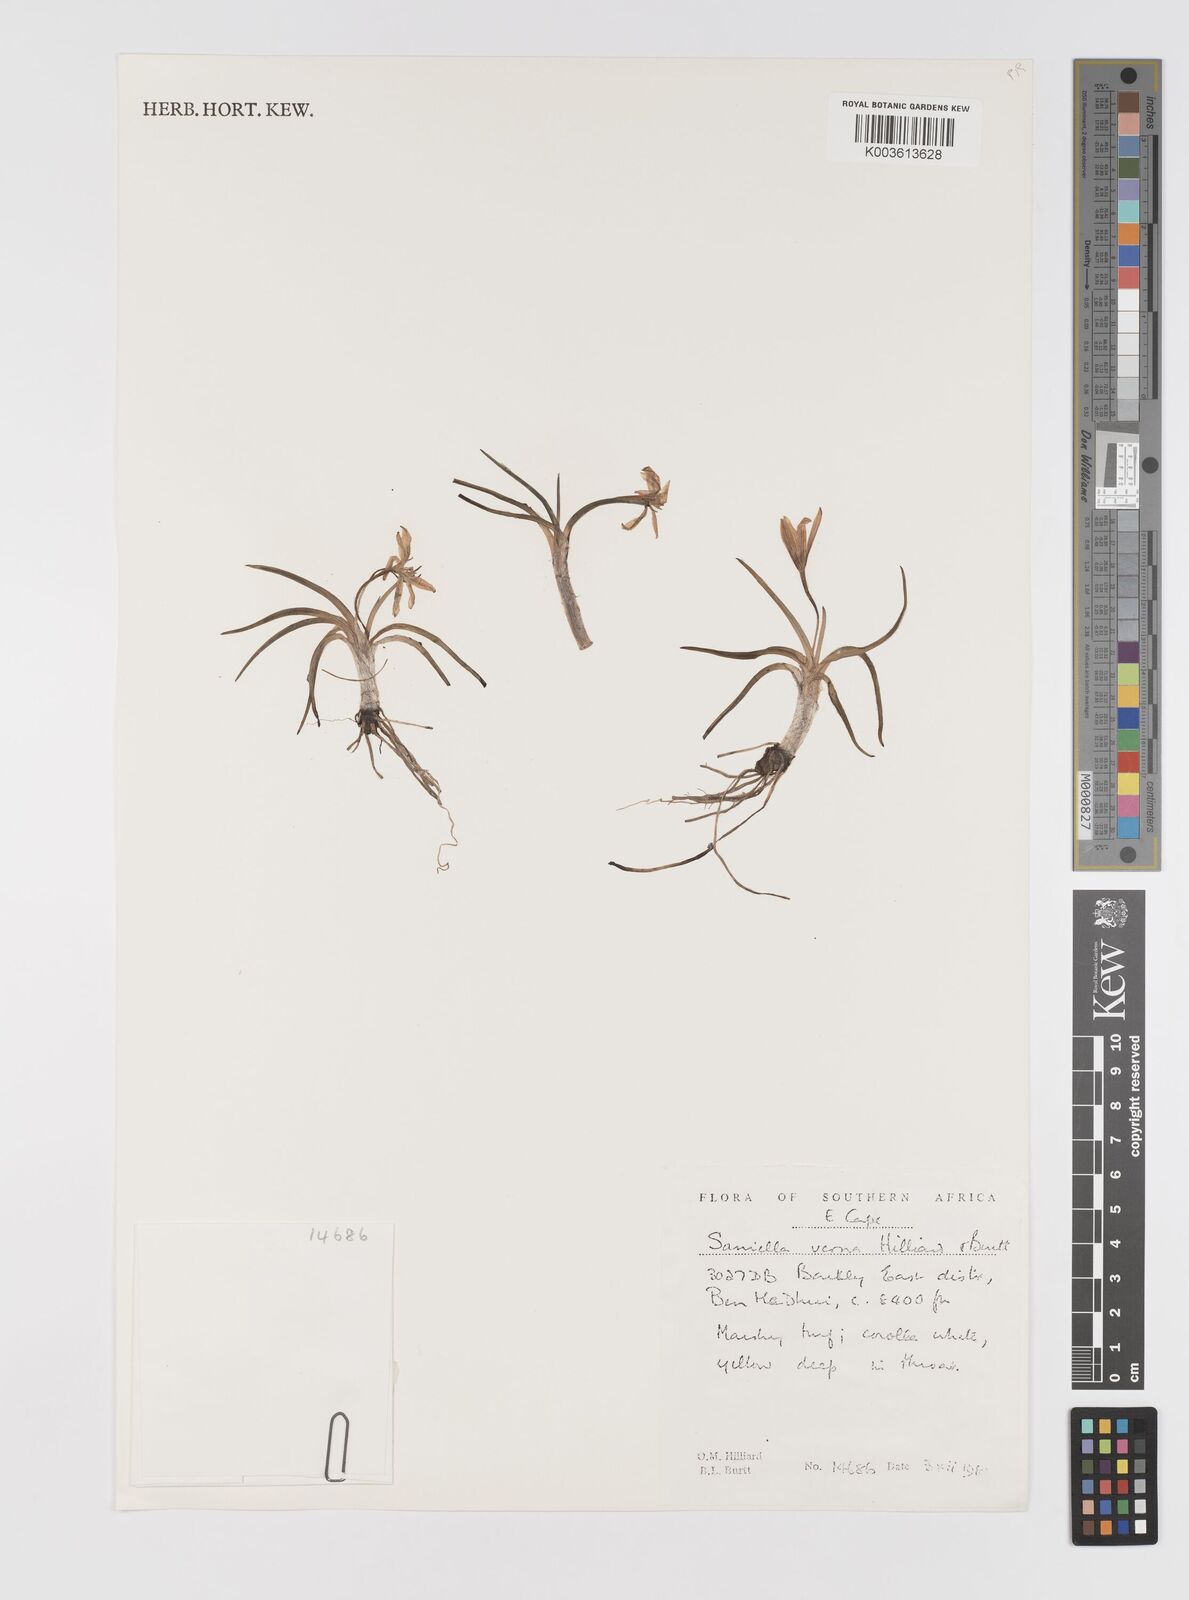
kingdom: Plantae
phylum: Tracheophyta
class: Liliopsida
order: Asparagales
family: Hypoxidaceae
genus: Pauridia
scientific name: Pauridia verna
